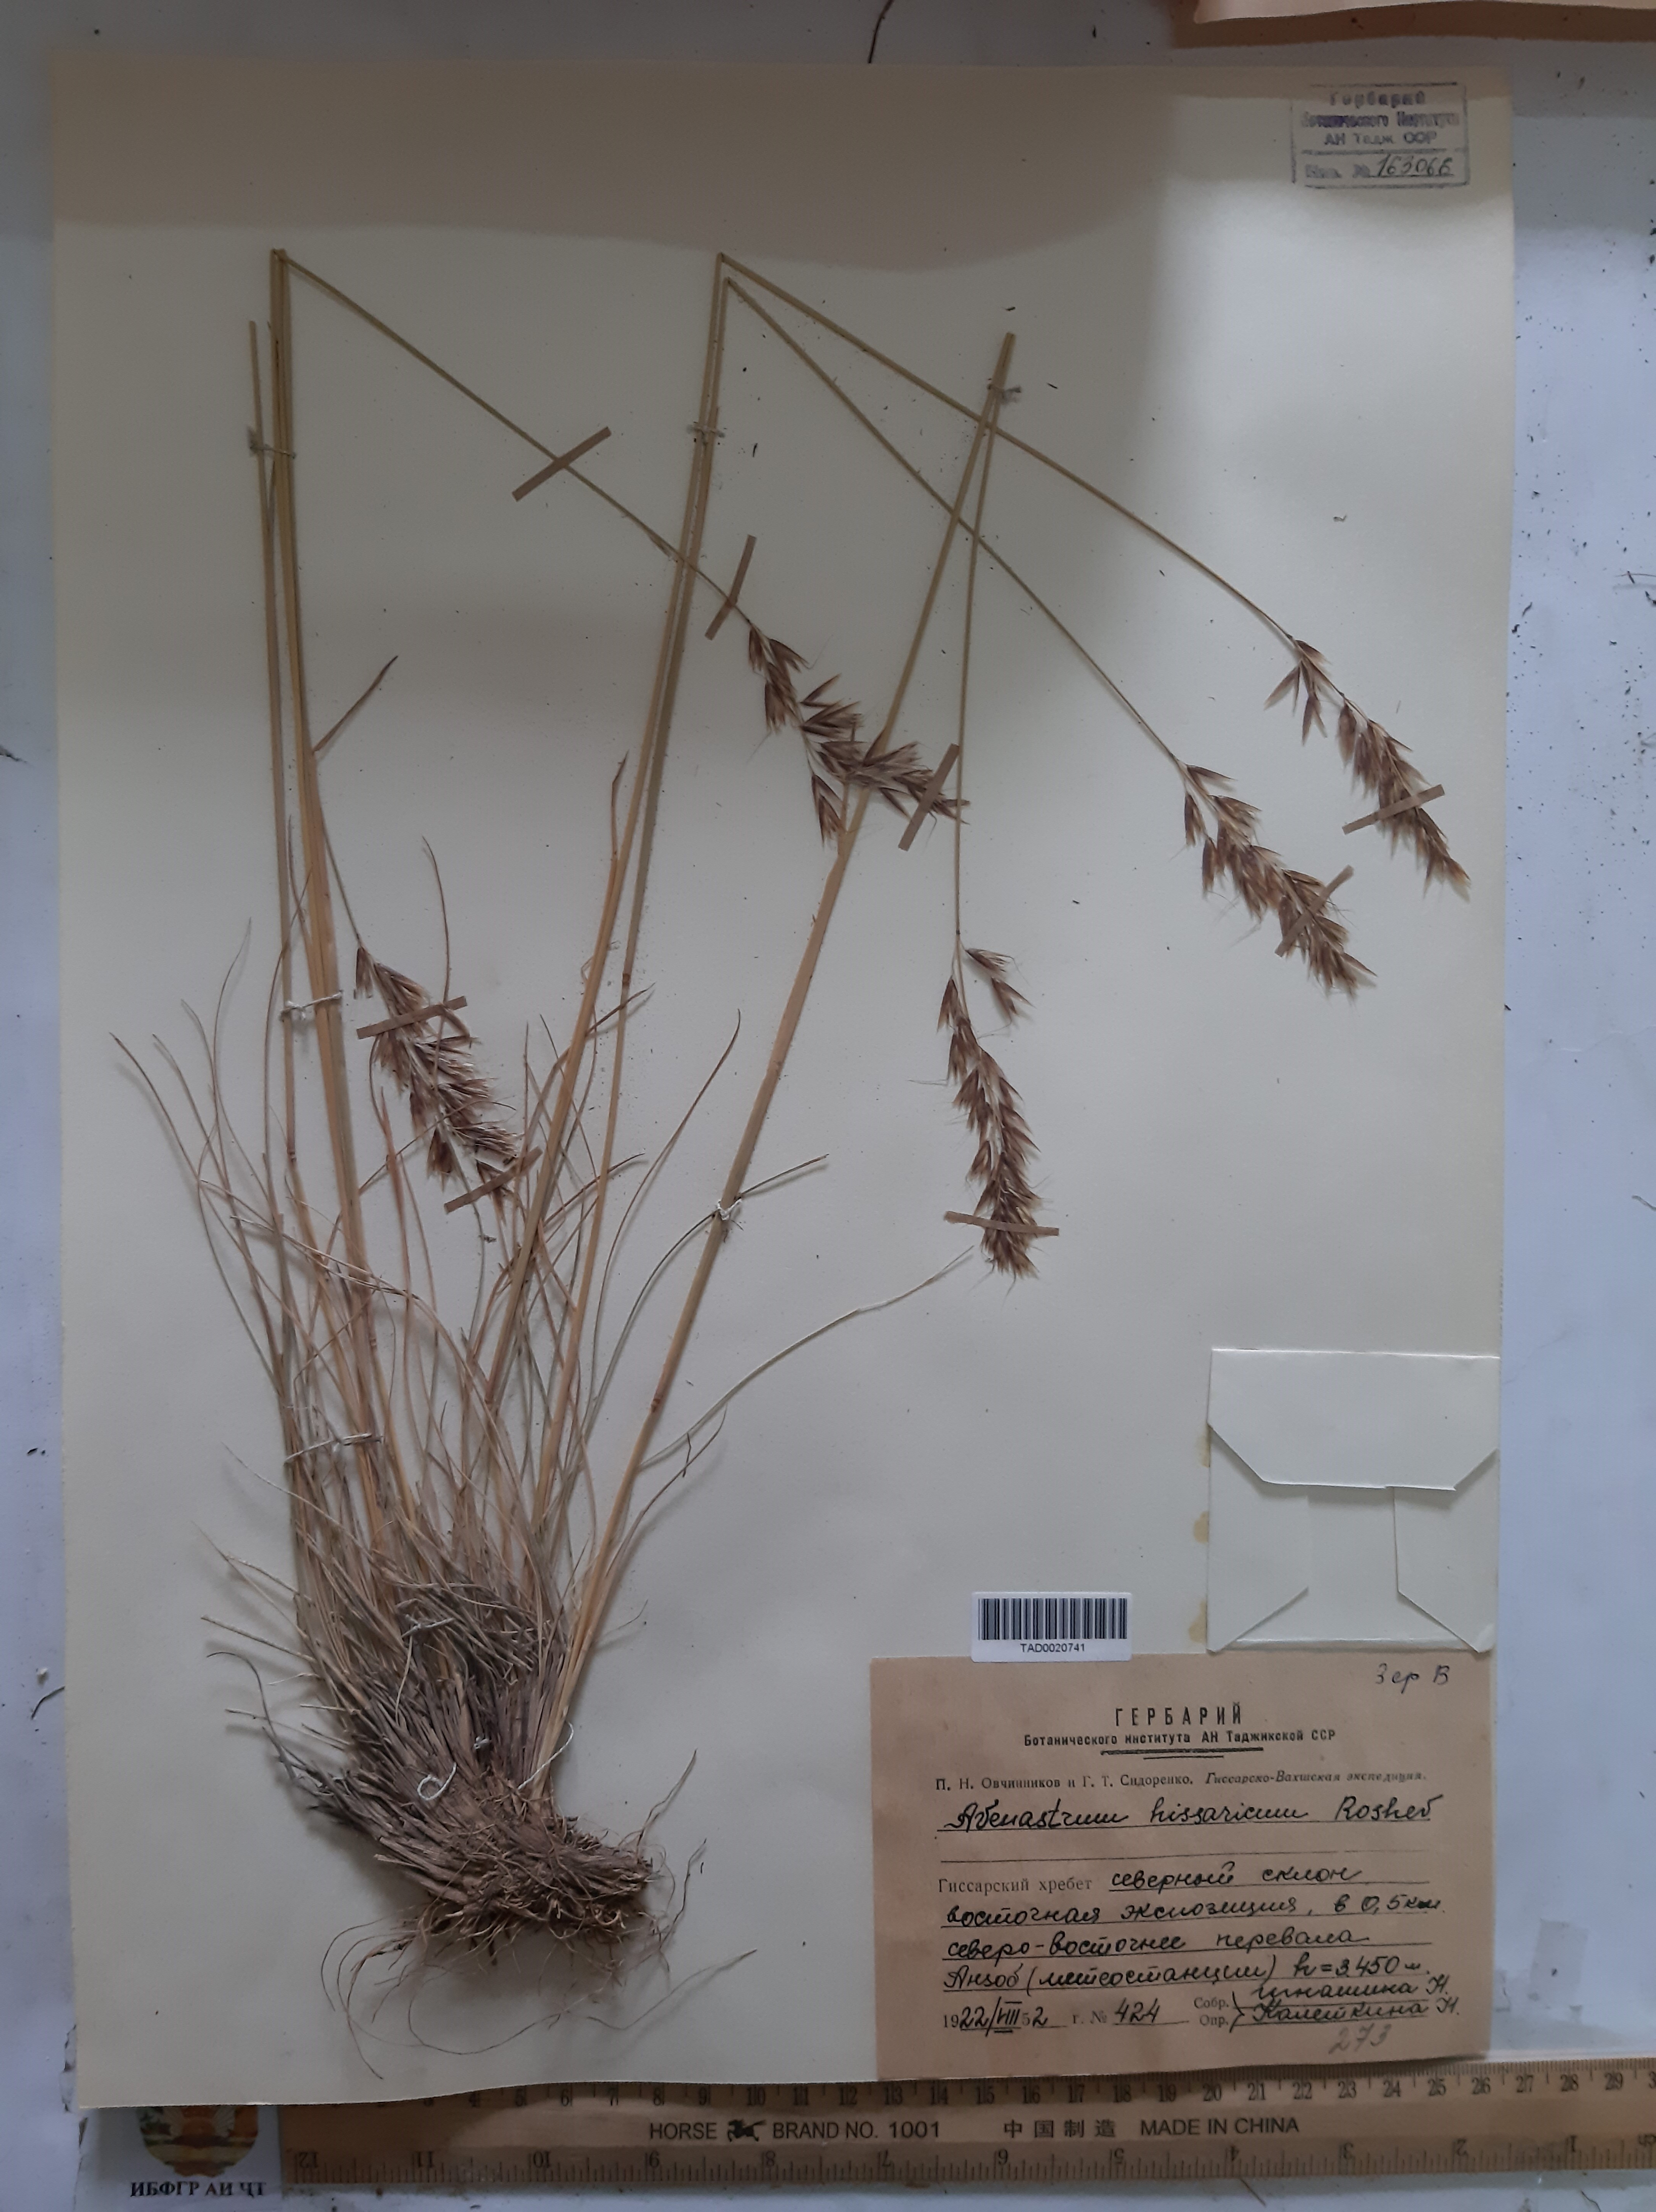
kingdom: Plantae
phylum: Tracheophyta
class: Liliopsida
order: Poales
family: Poaceae
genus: Helictotrichon
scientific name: Helictotrichon hissaricum
